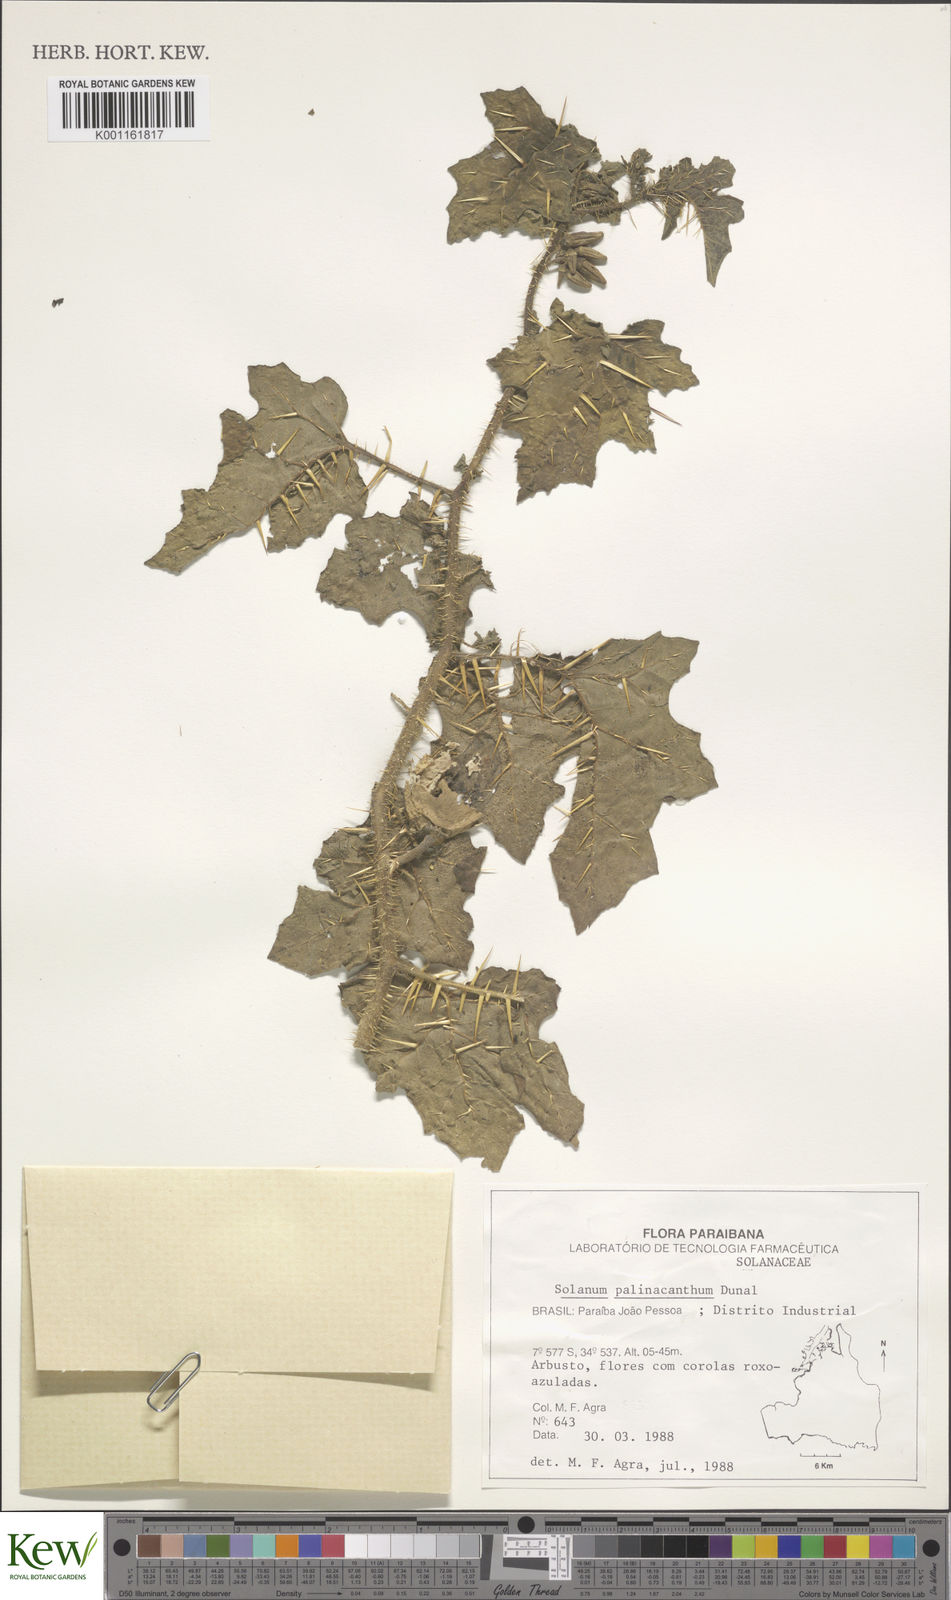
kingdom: Plantae
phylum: Tracheophyta
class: Magnoliopsida
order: Solanales
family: Solanaceae
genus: Solanum
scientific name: Solanum palinacanthum
